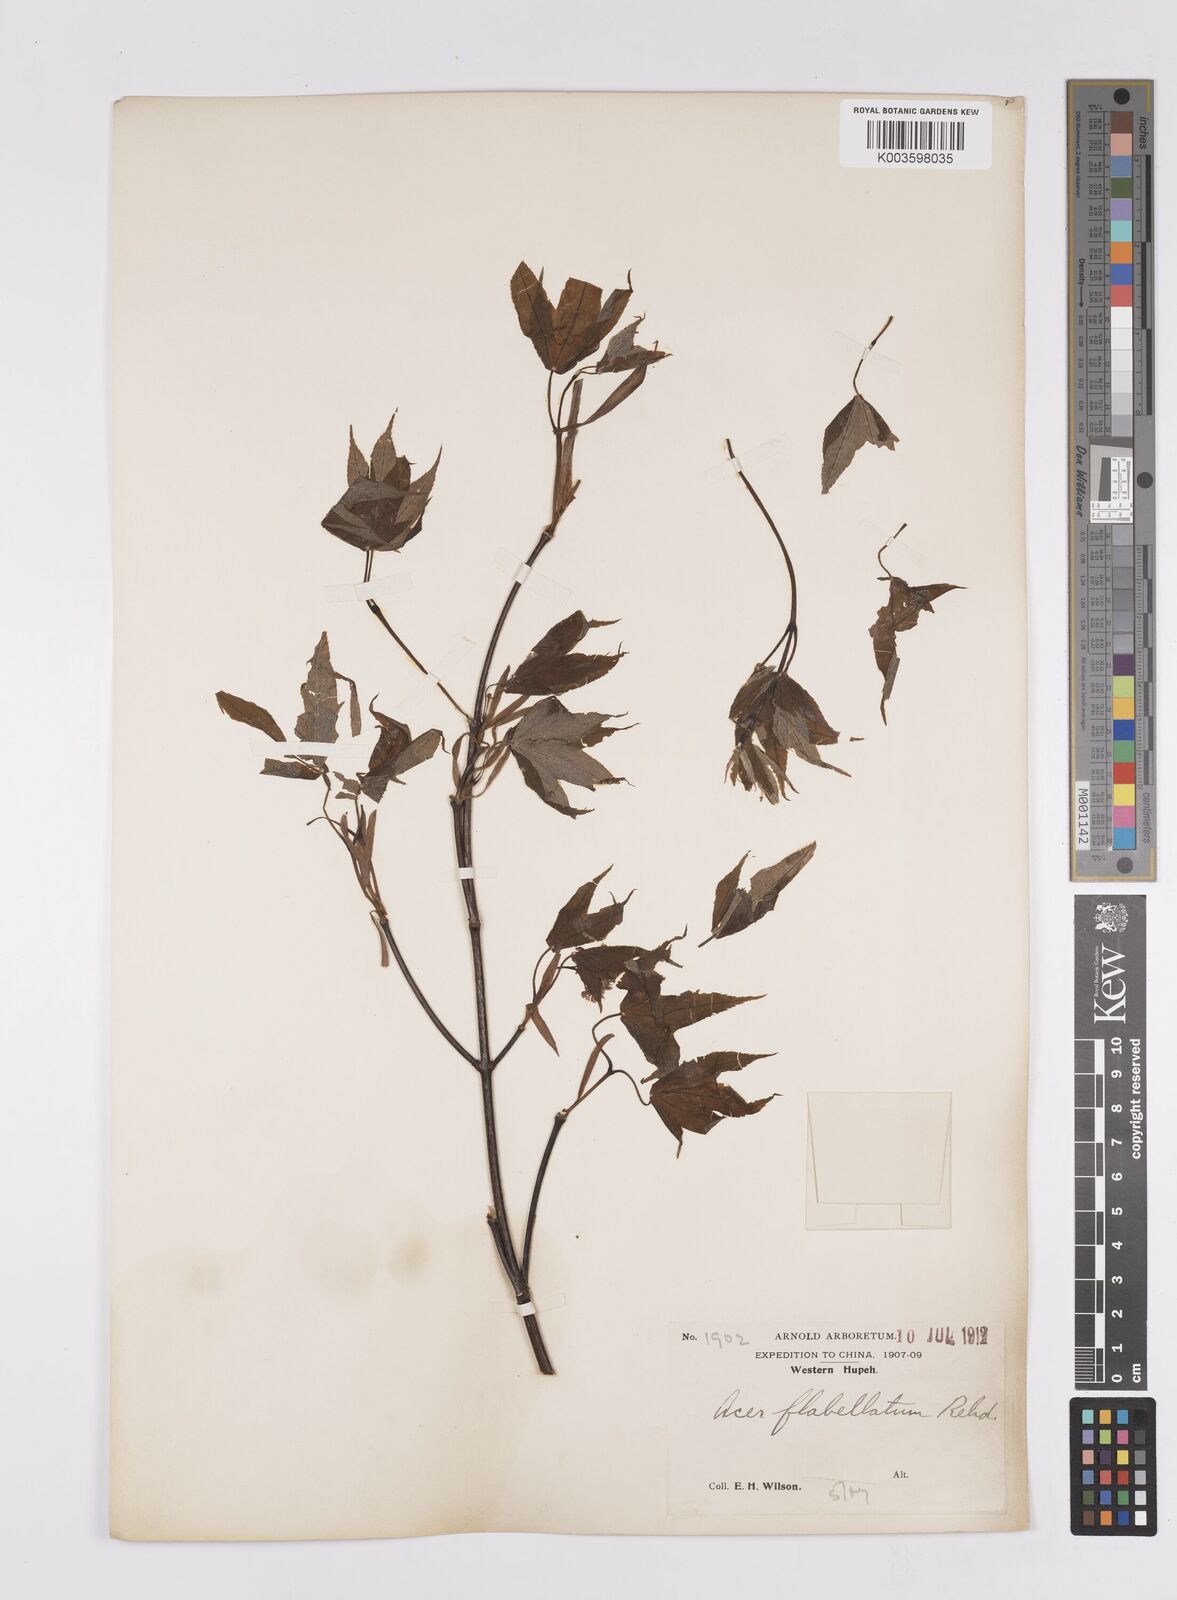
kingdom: Plantae
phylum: Tracheophyta
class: Magnoliopsida
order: Sapindales
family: Sapindaceae
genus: Acer
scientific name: Acer
